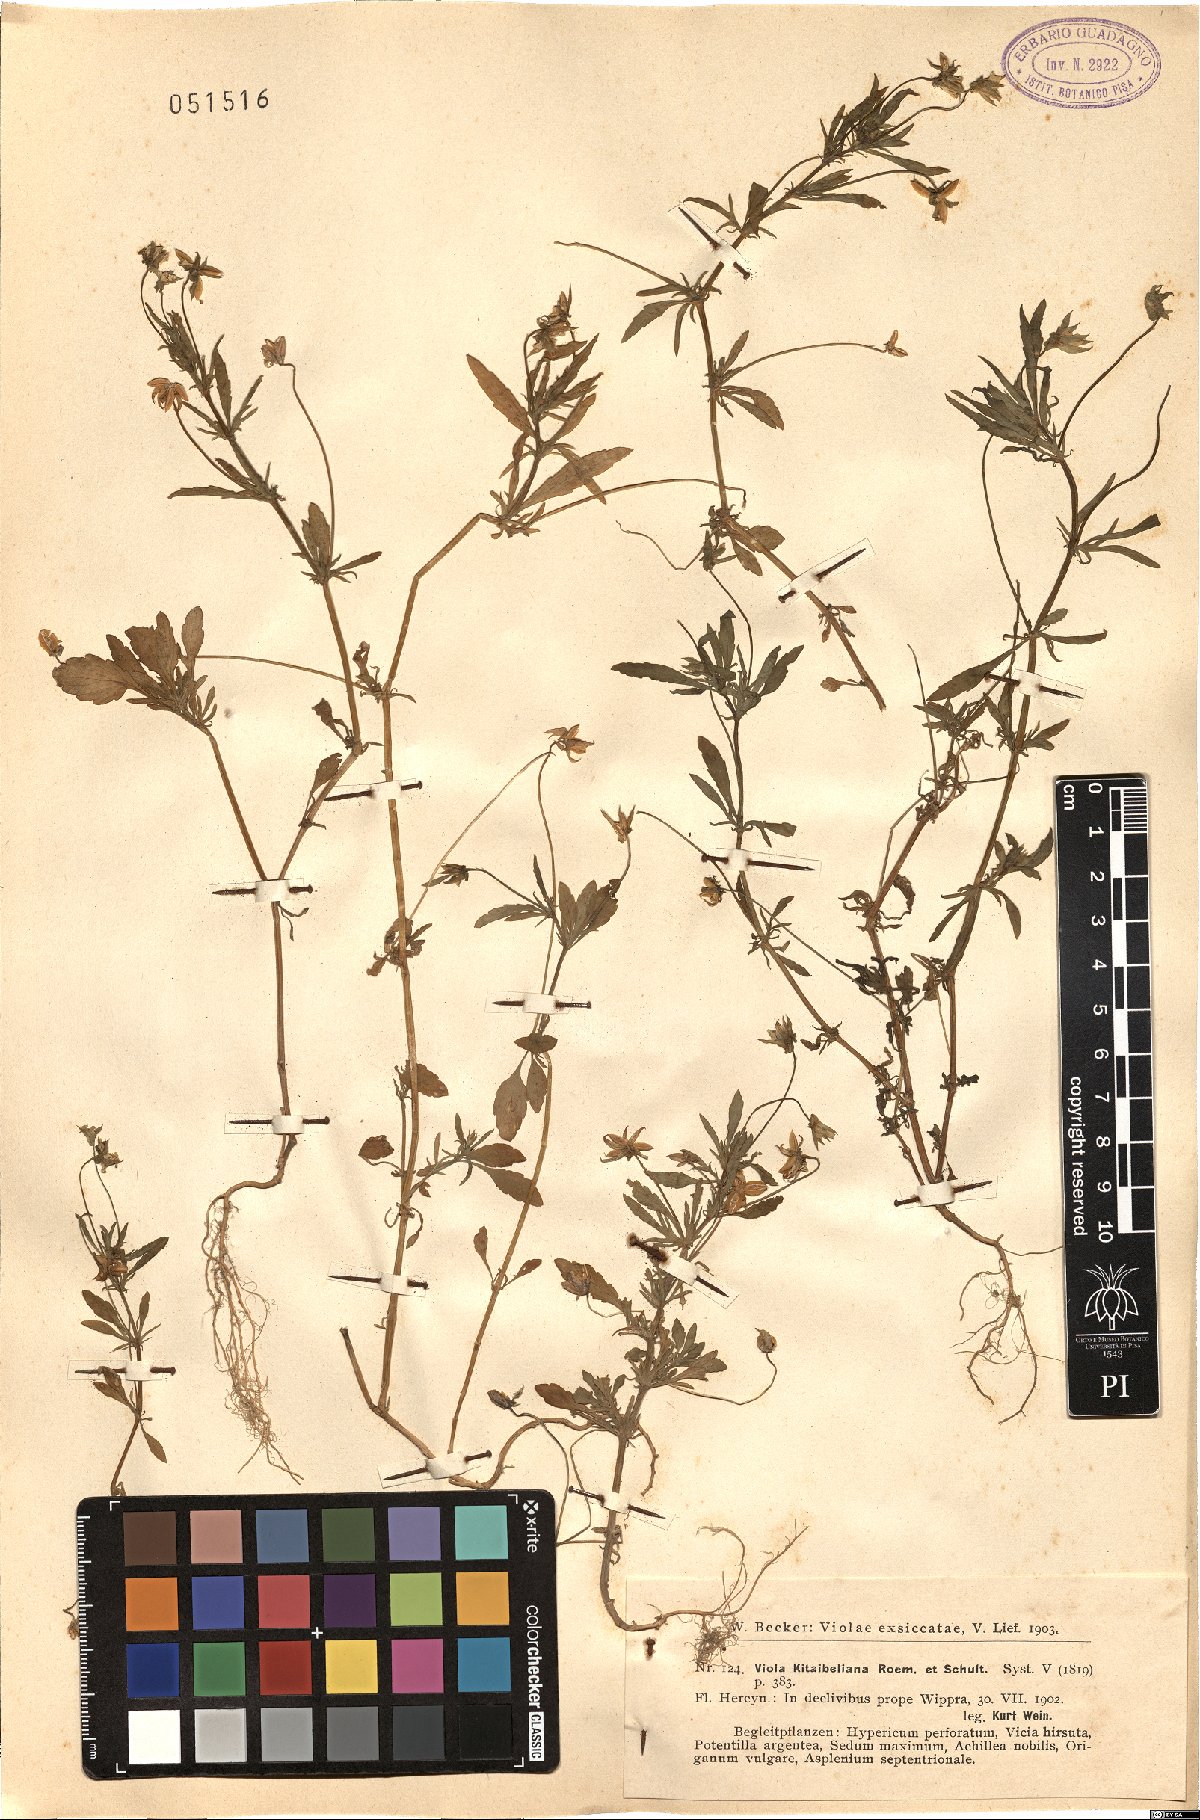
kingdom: Plantae
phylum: Tracheophyta
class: Magnoliopsida
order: Malpighiales
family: Violaceae
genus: Viola
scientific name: Viola kitaibeliana
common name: Dwarf pansy
